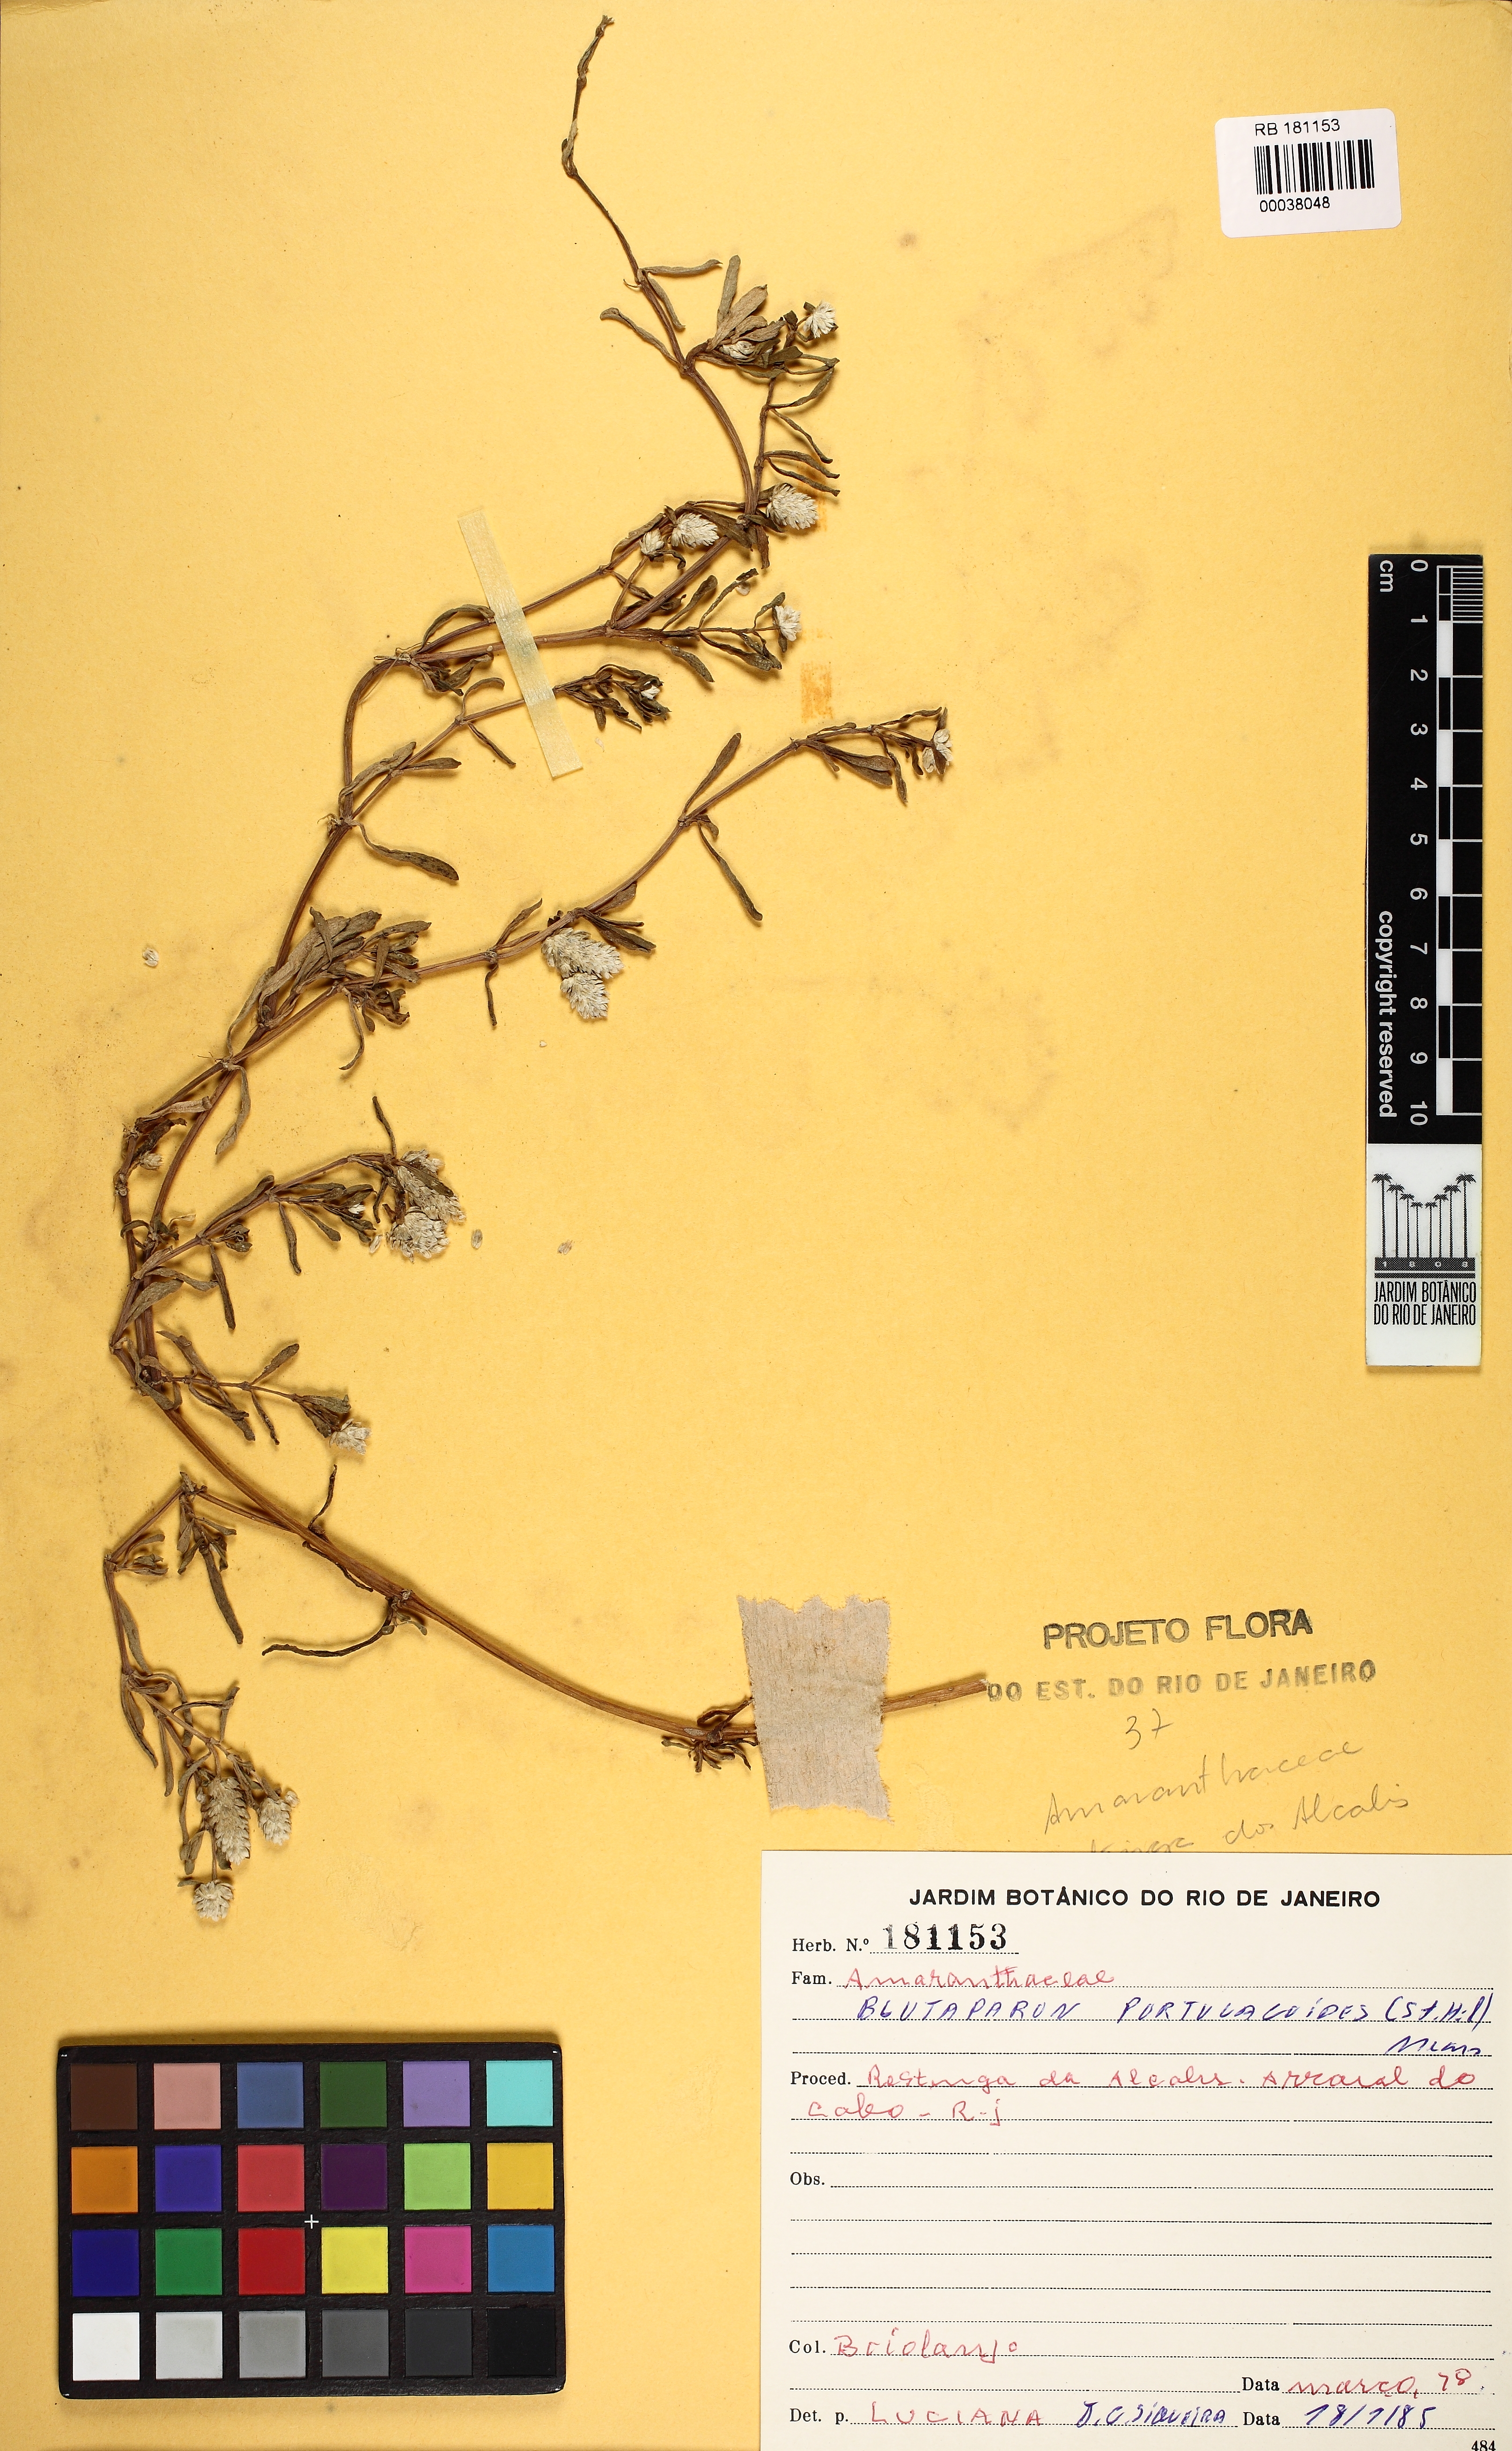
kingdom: Plantae
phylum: Tracheophyta
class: Magnoliopsida
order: Caryophyllales
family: Amaranthaceae
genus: Gomphrena
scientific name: Gomphrena portulacoides
